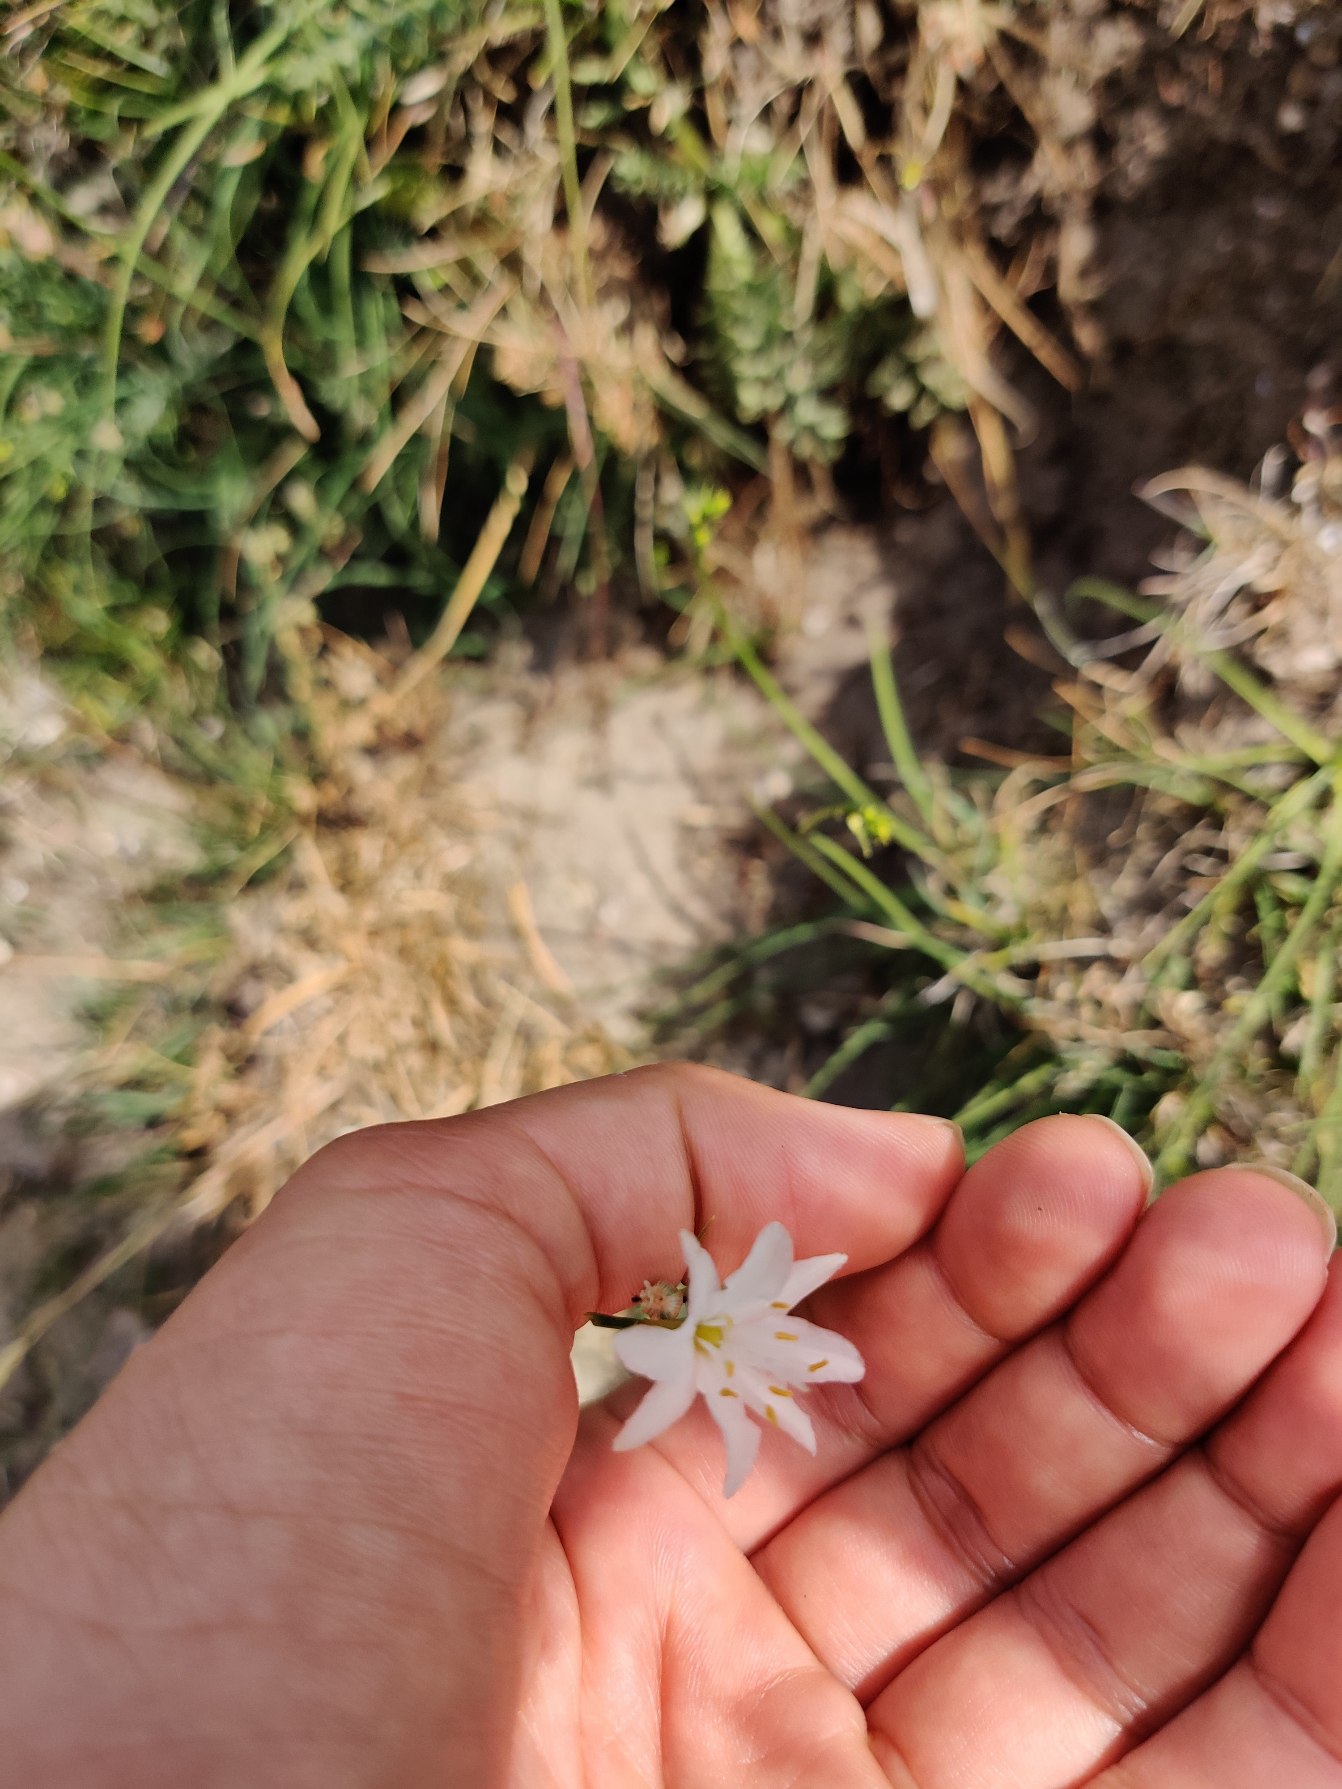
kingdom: Plantae
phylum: Tracheophyta
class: Liliopsida
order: Asparagales
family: Asparagaceae
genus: Anthericum
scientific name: Anthericum ramosum
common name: Grenet edderkopurt
